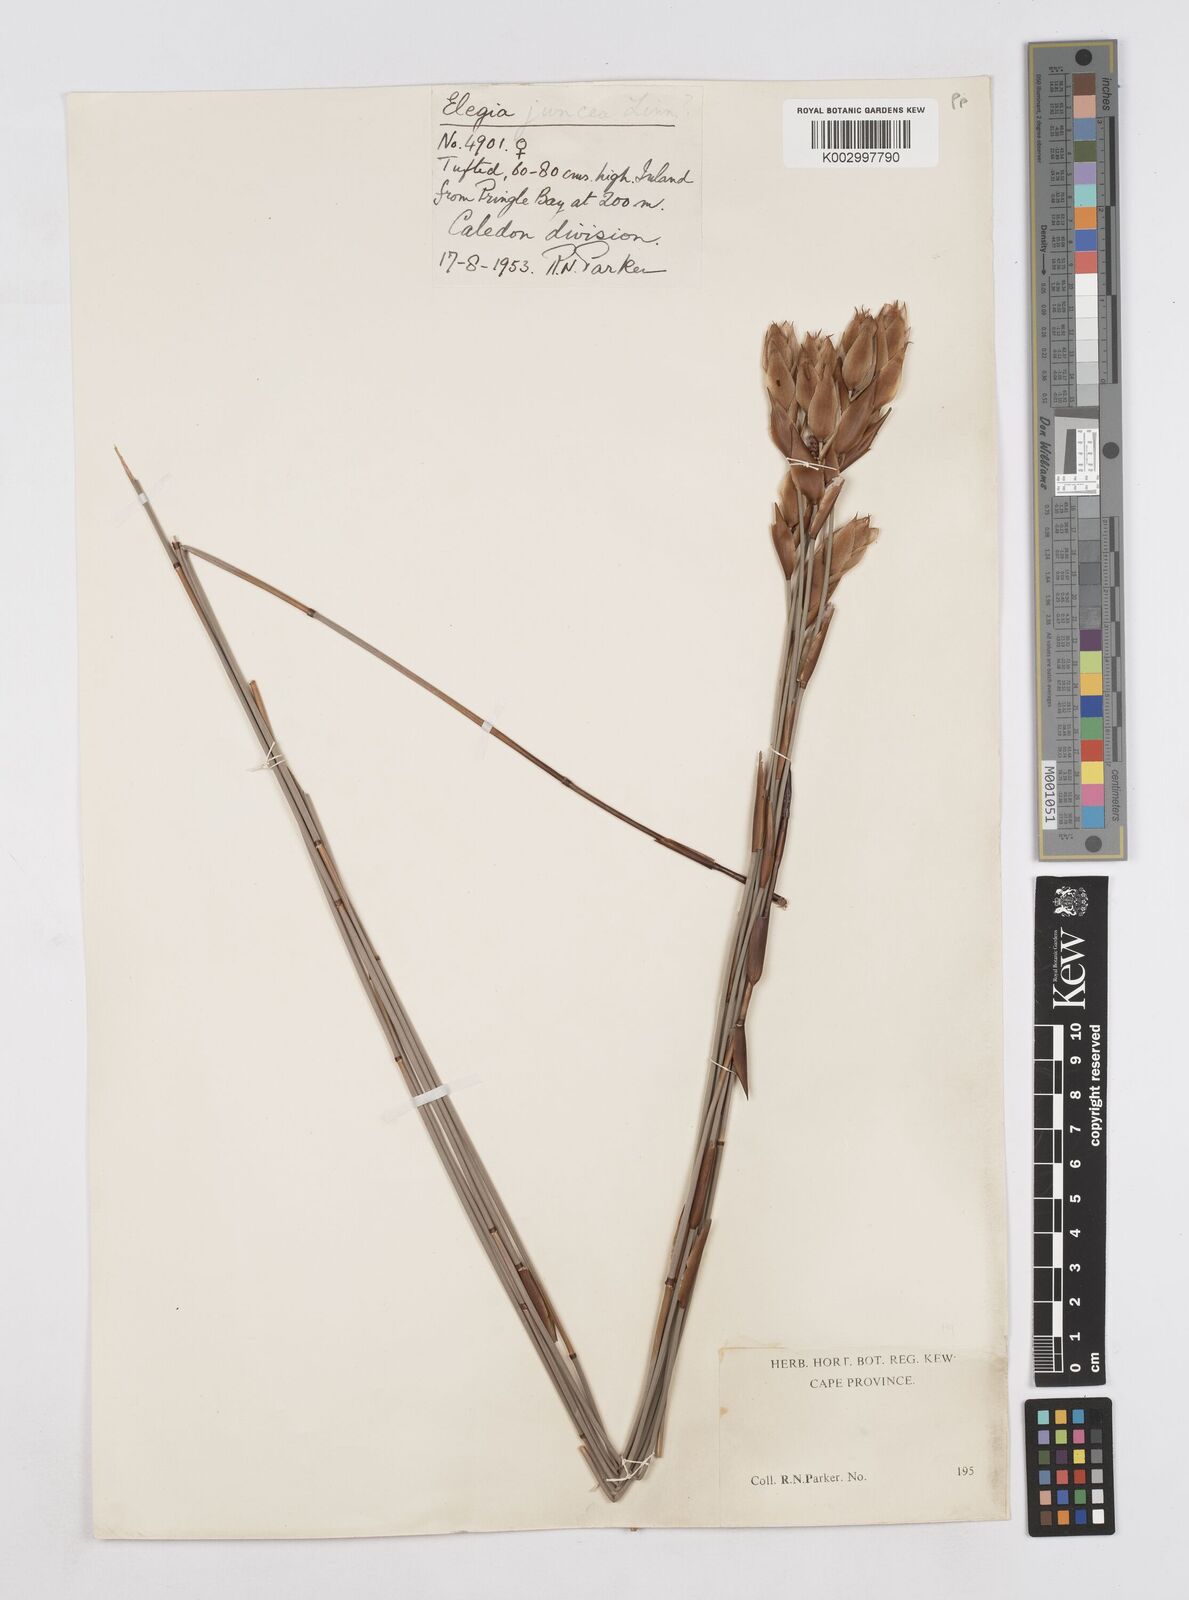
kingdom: Plantae
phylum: Tracheophyta
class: Liliopsida
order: Poales
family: Restionaceae
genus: Elegia
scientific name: Elegia juncea
